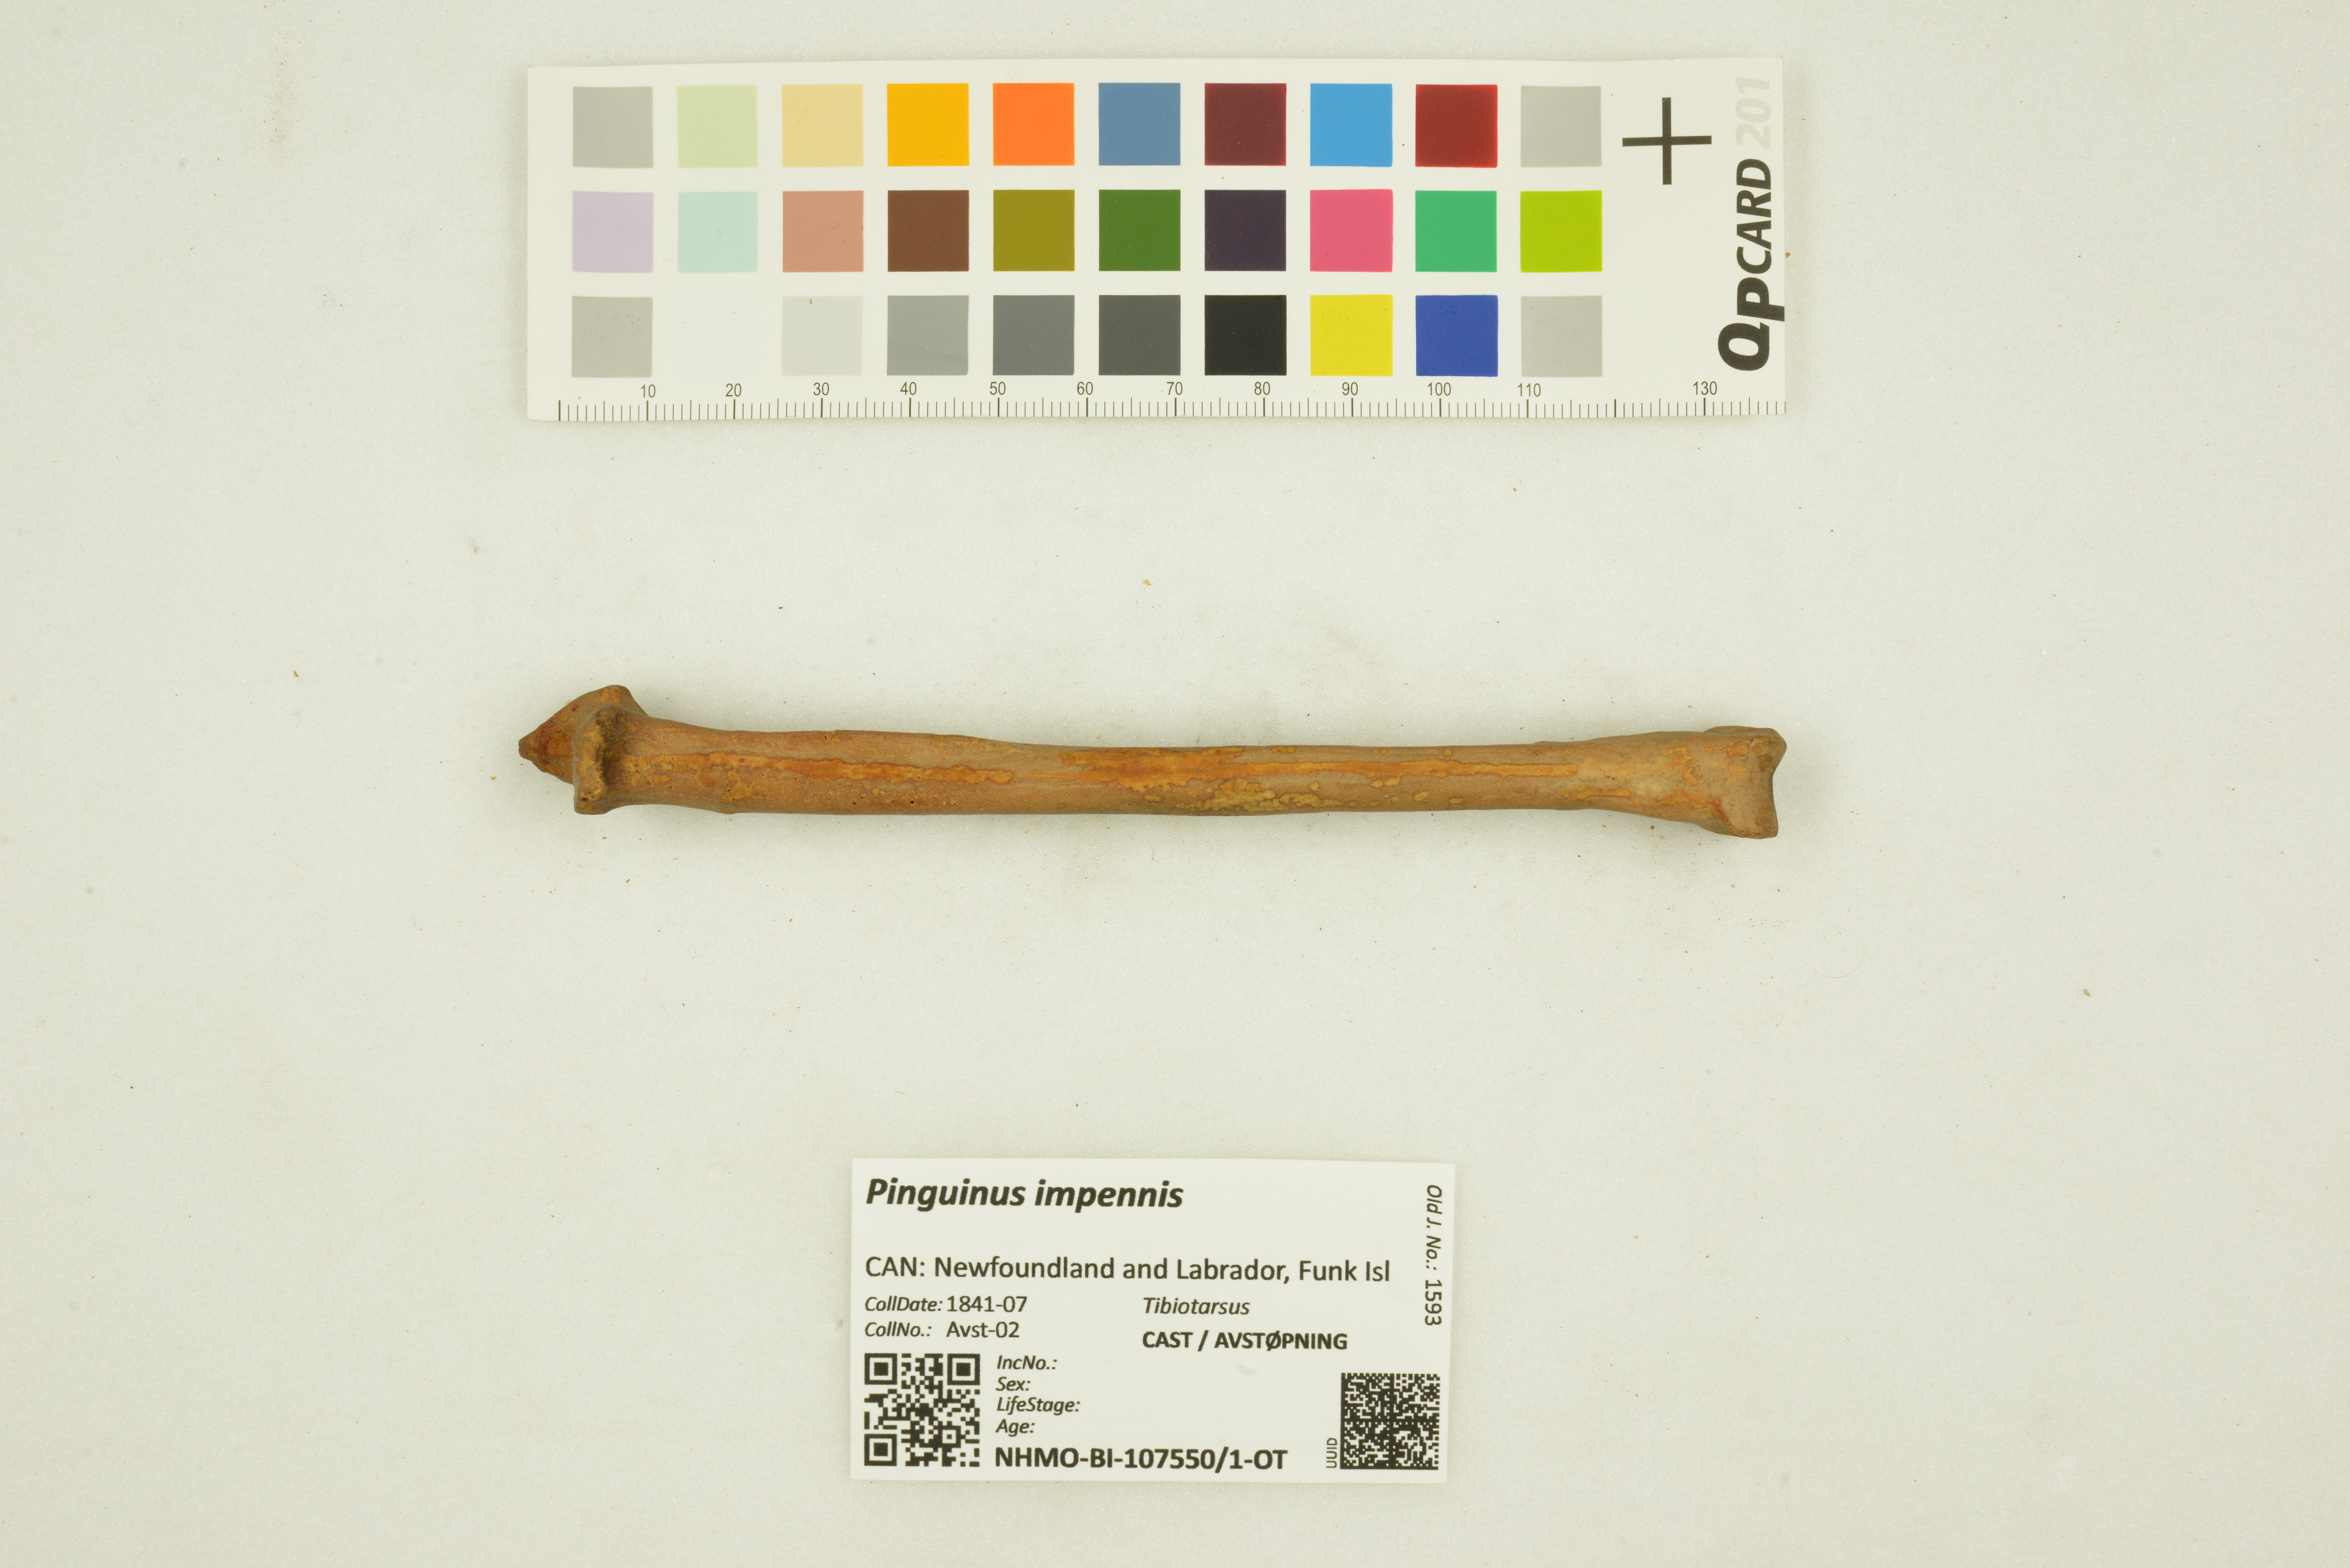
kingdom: Animalia
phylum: Chordata
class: Aves
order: Charadriiformes
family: Alcidae
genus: Pinguinus
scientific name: Pinguinus impennis
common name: Great auk
